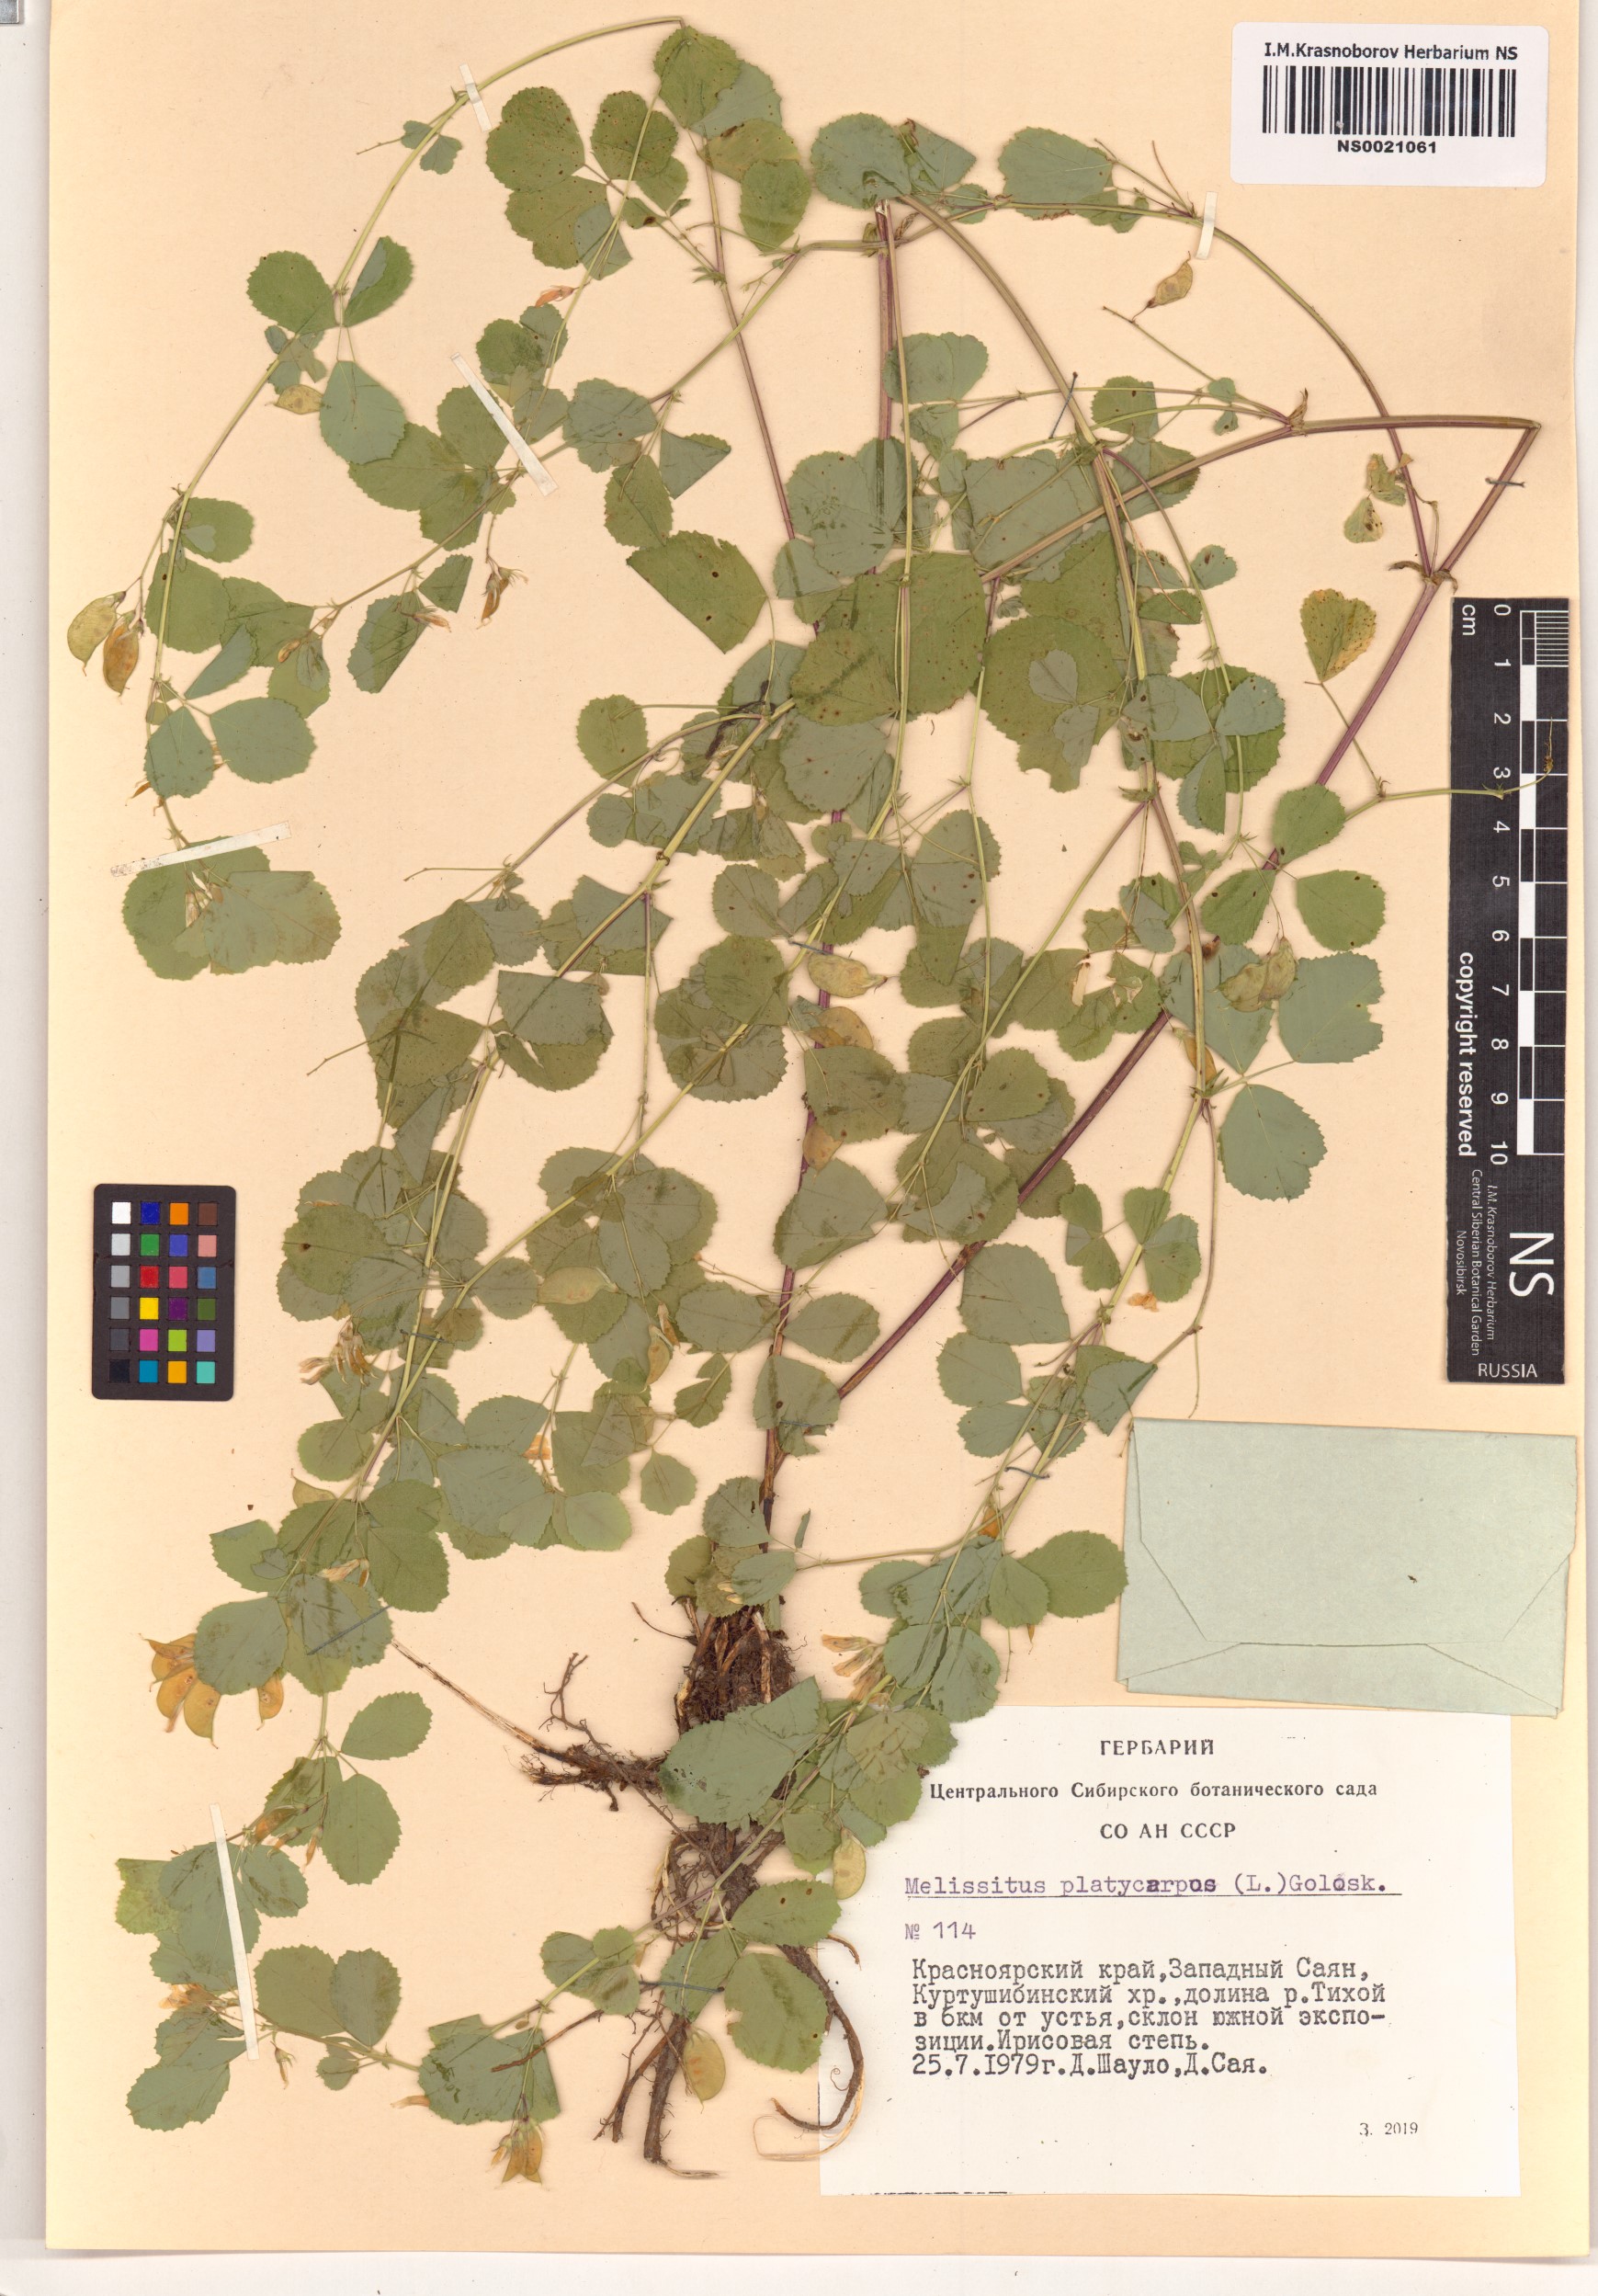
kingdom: Plantae
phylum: Tracheophyta
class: Magnoliopsida
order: Fabales
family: Fabaceae
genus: Medicago
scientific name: Medicago platycarpos
